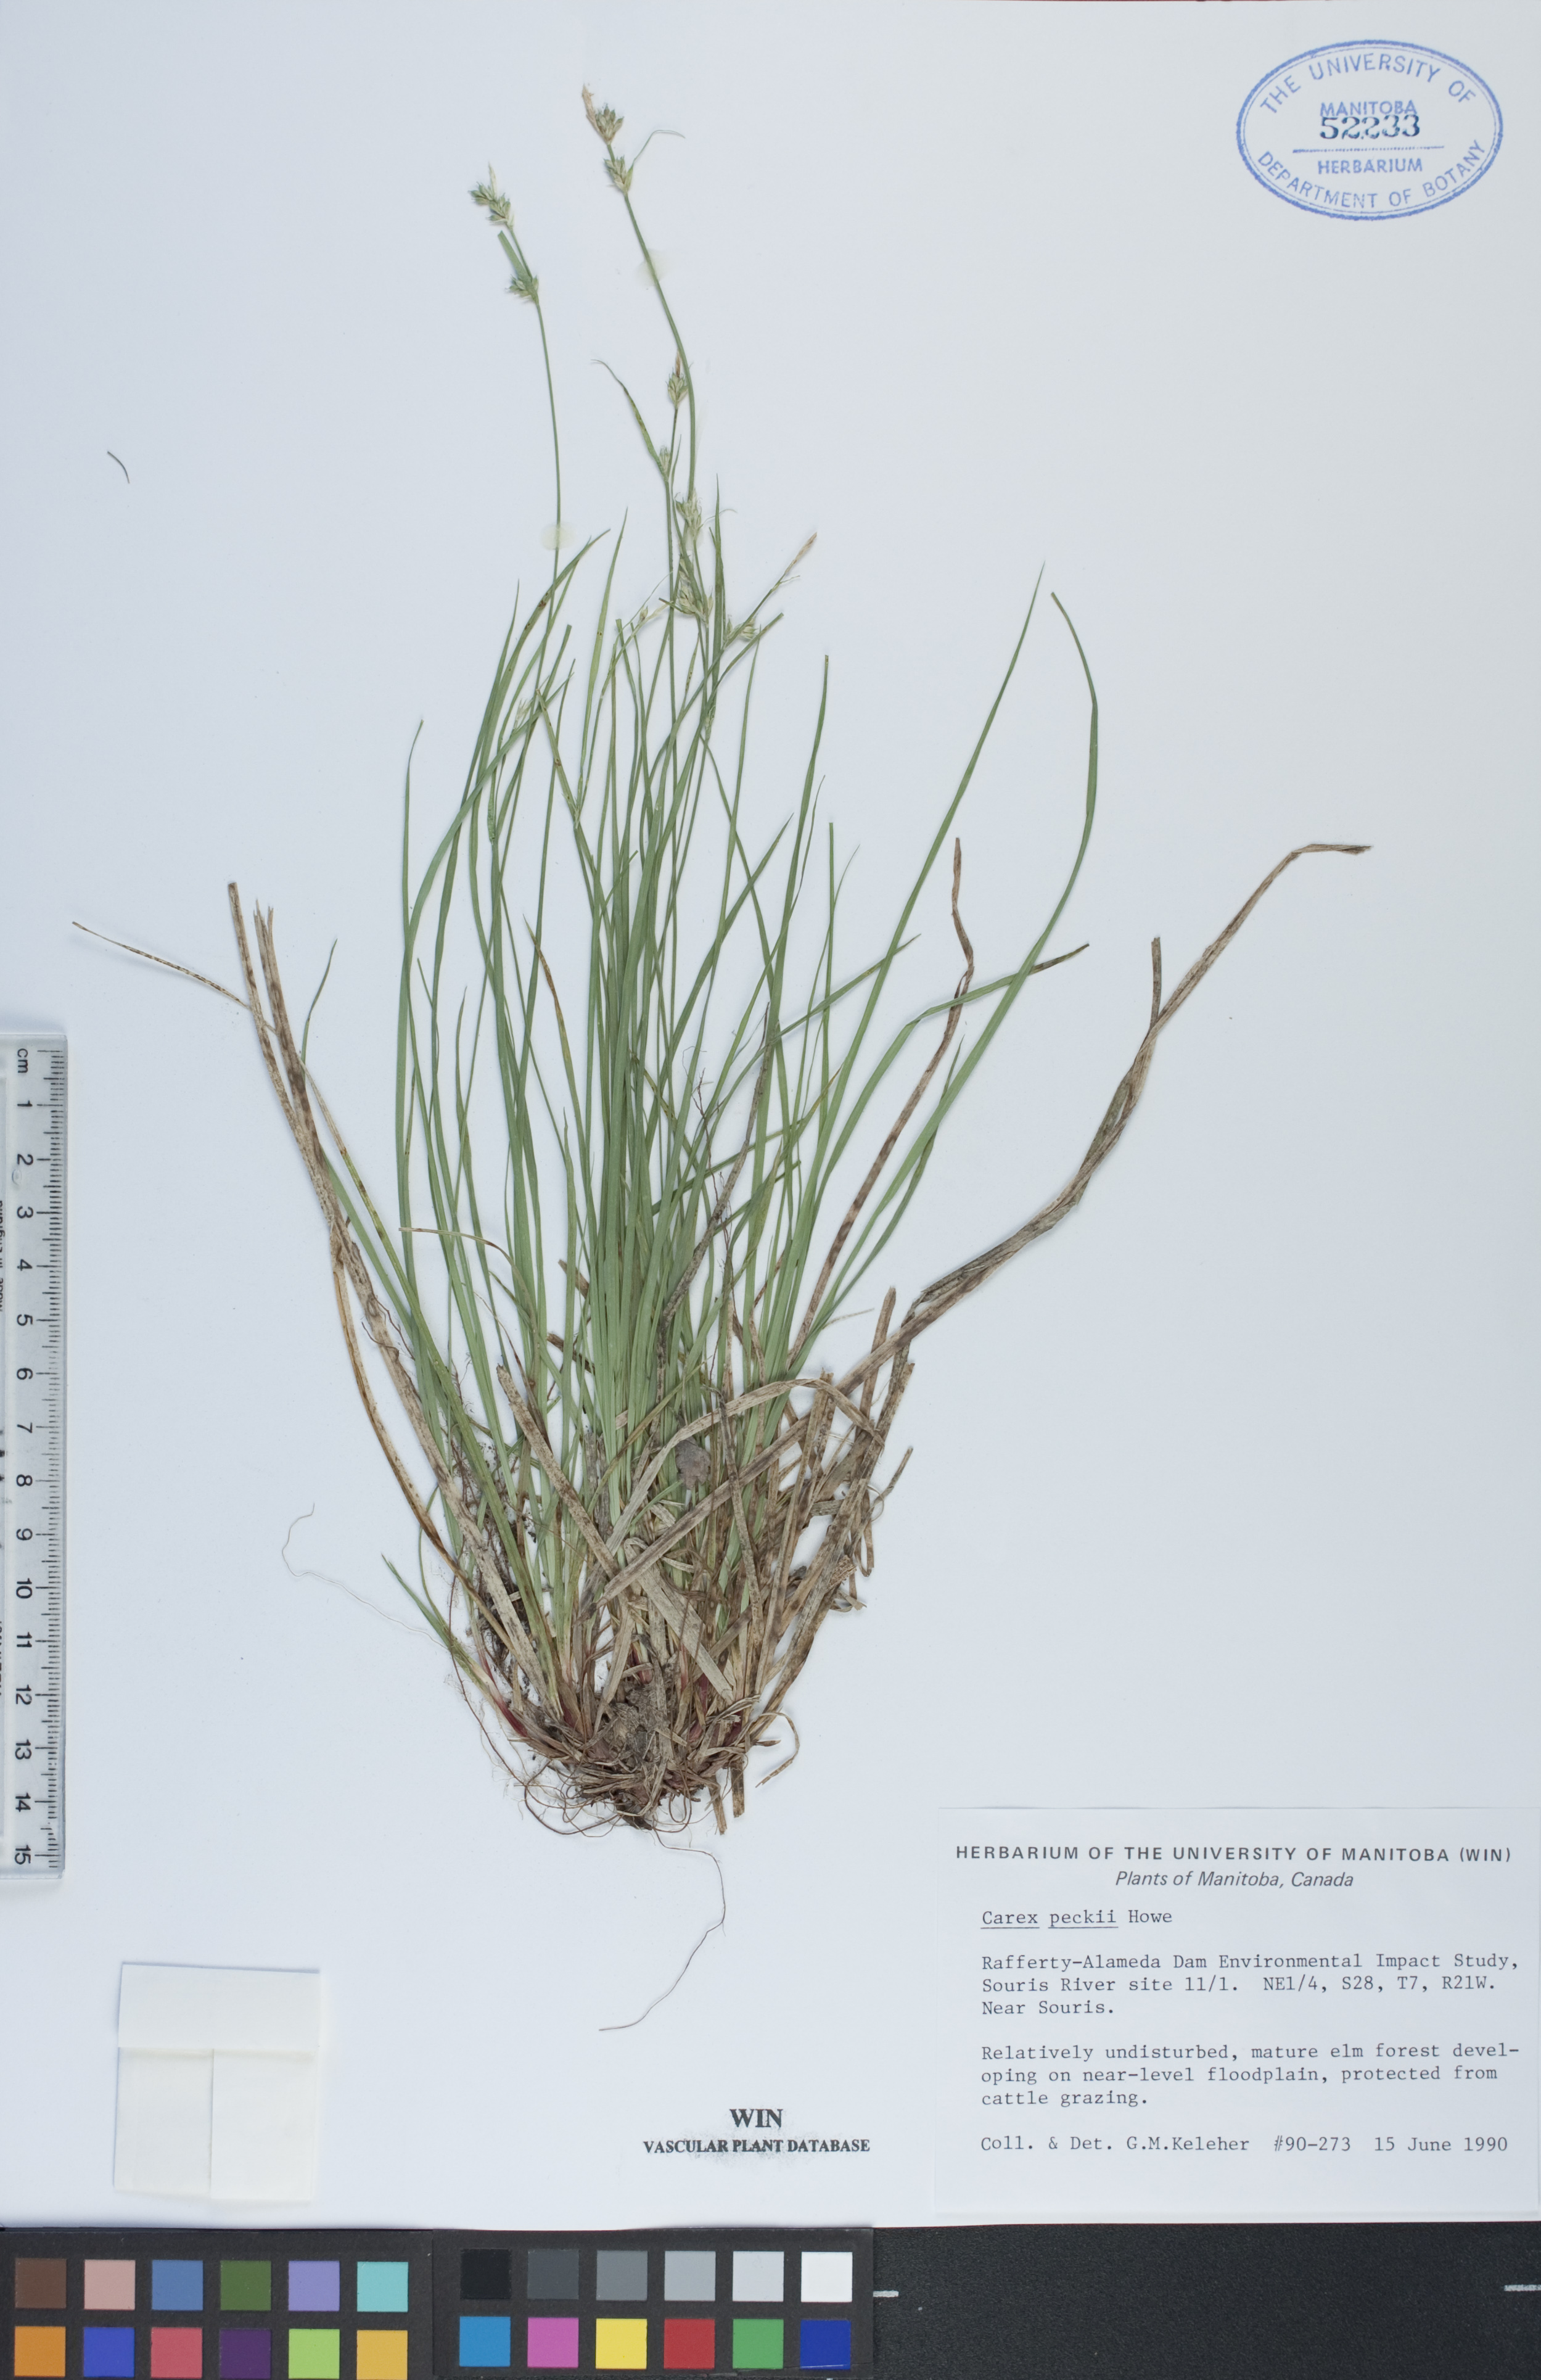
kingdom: Plantae
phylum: Tracheophyta
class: Liliopsida
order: Poales
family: Cyperaceae
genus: Carex
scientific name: Carex peckii
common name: Peck's oak sedge
